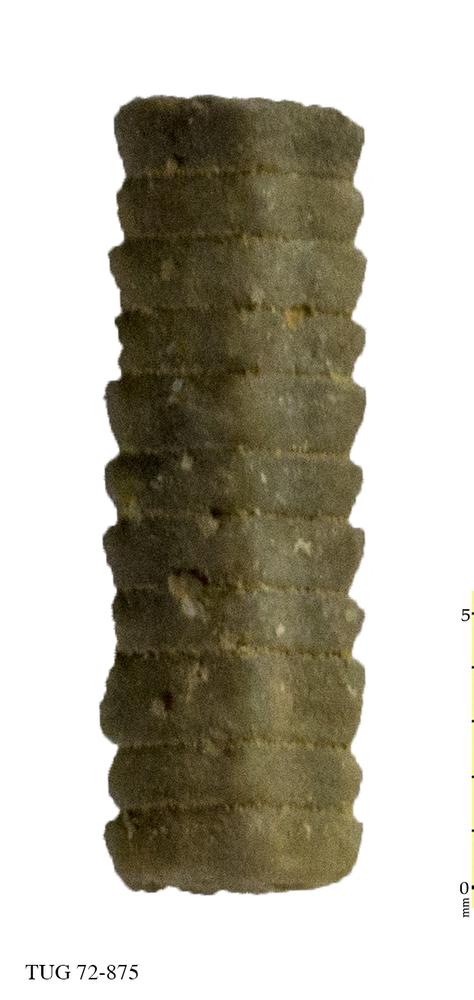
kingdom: Animalia
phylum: Echinodermata
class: Crinoidea
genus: Baltocrinus
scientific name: Baltocrinus
